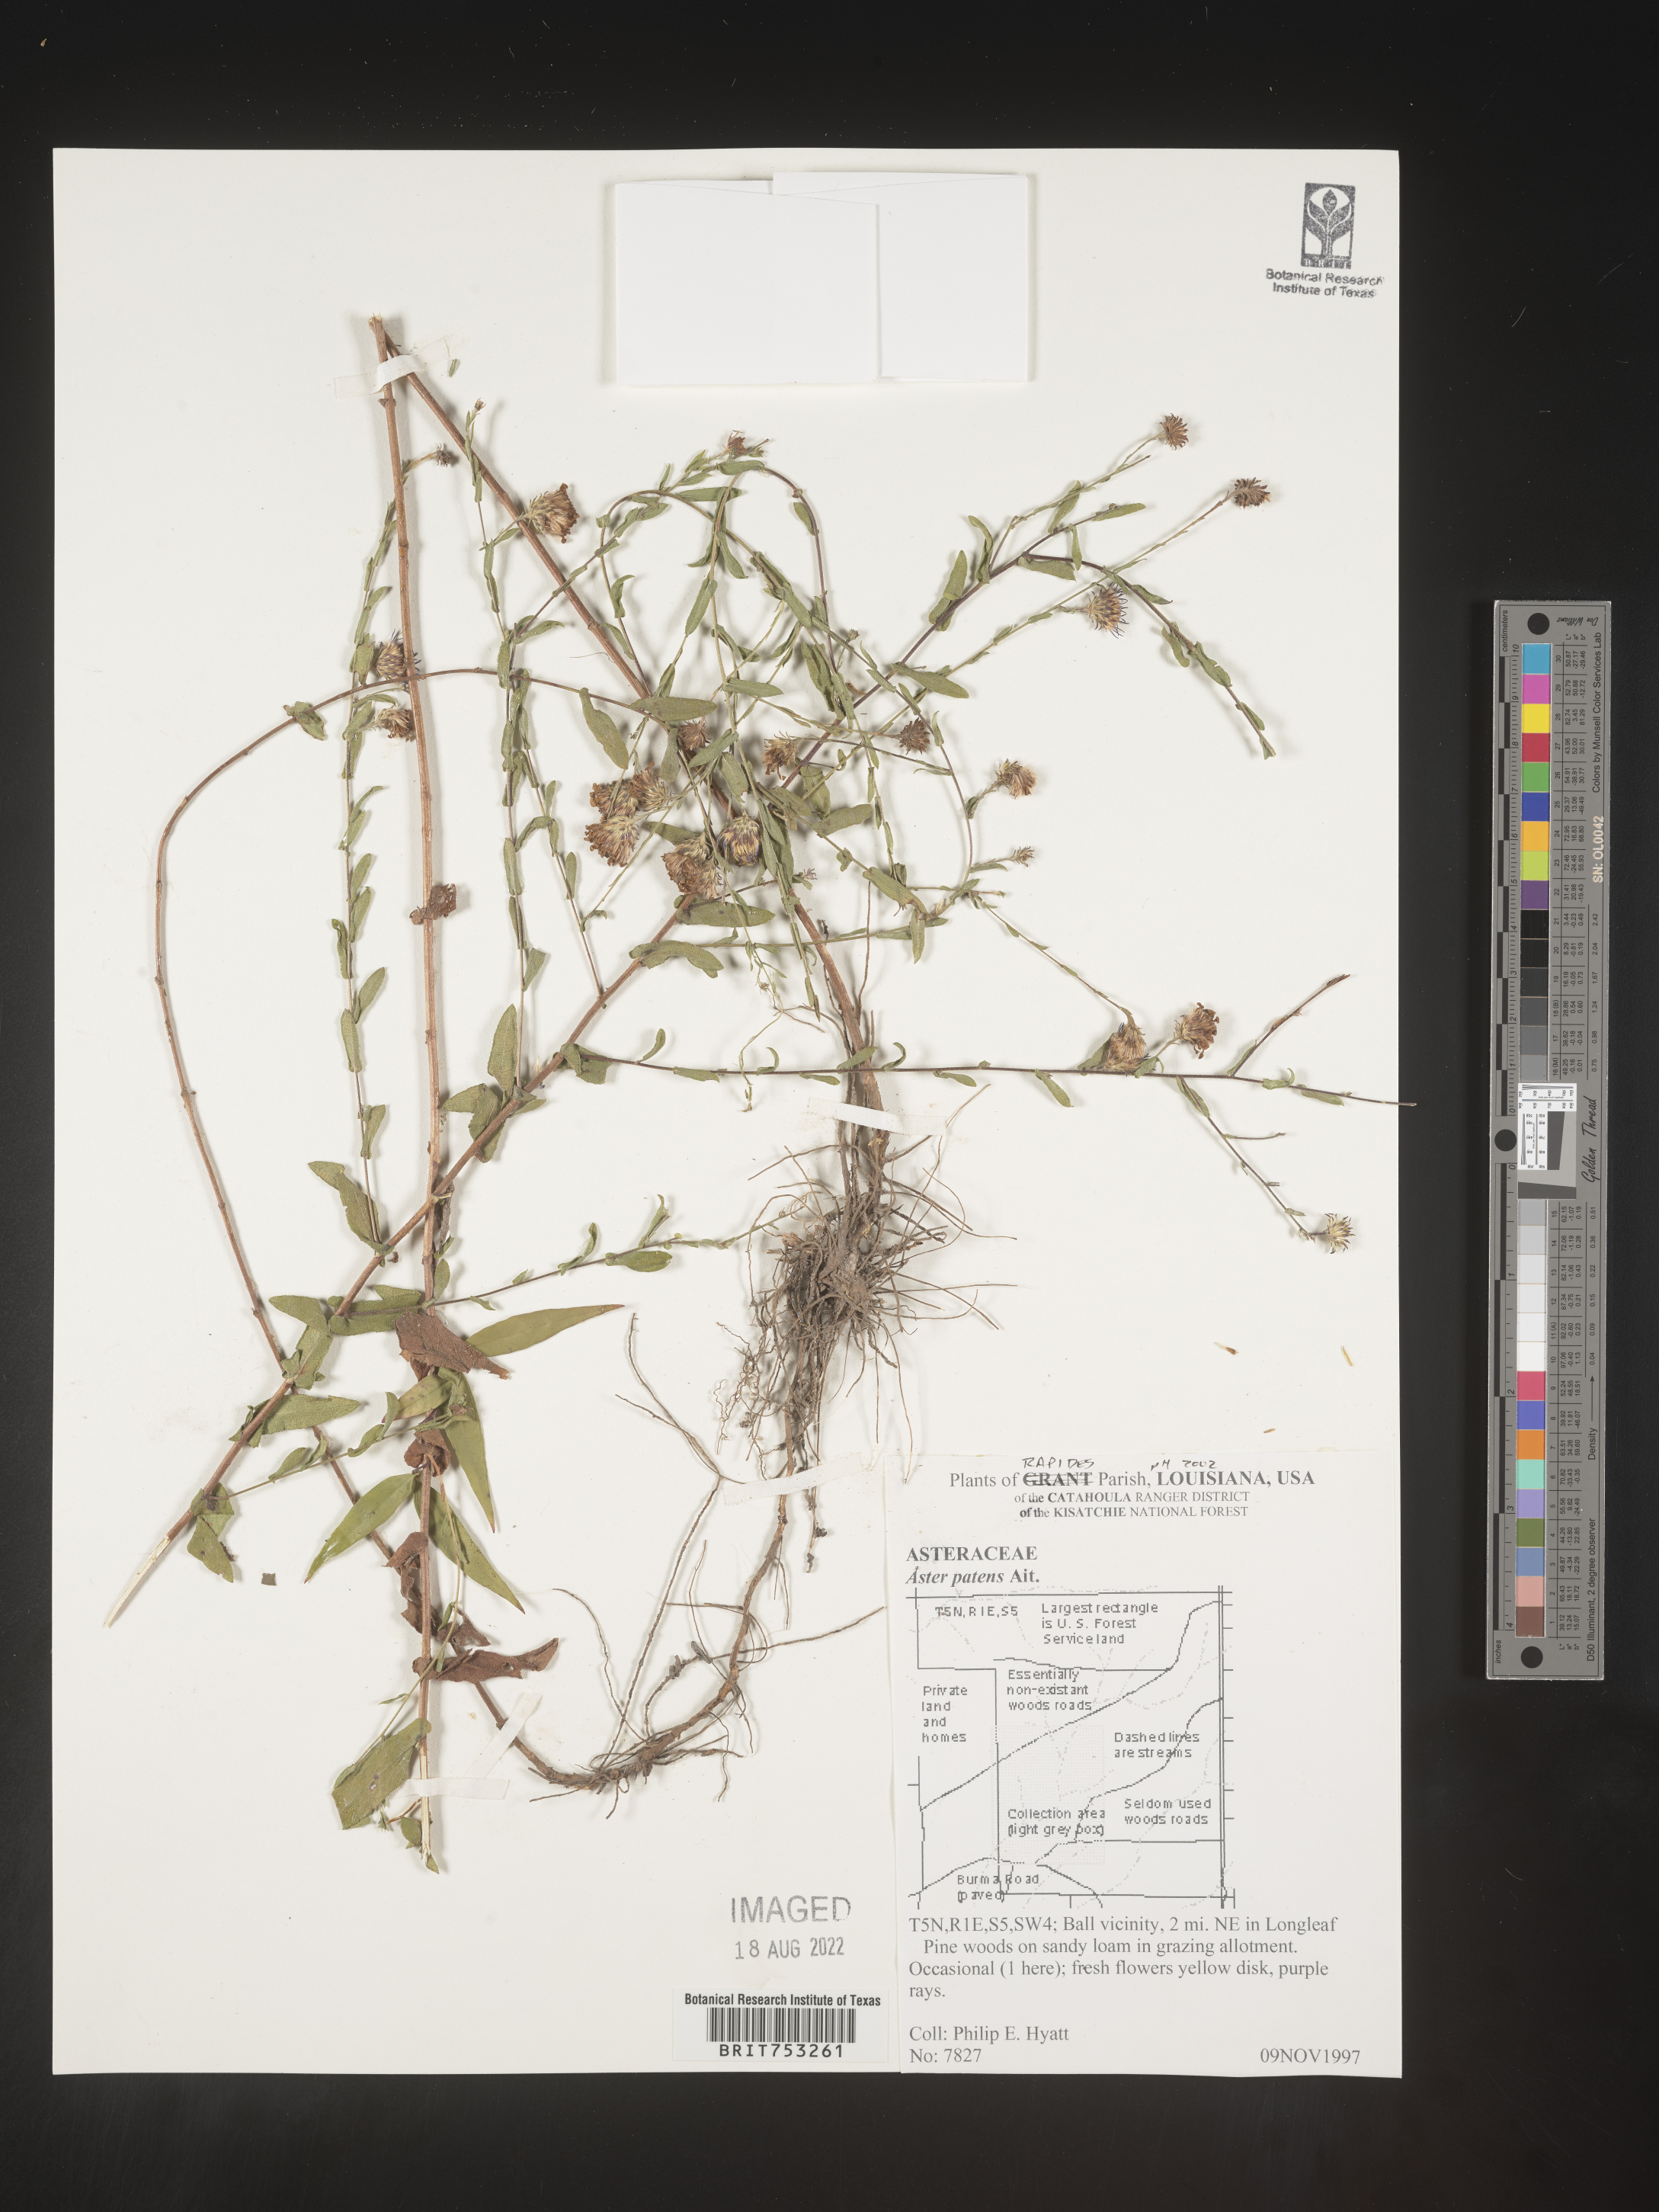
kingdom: Plantae
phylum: Tracheophyta
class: Magnoliopsida
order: Asterales
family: Asteraceae
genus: Symphyotrichum
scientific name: Symphyotrichum patens
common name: Late purple aster
